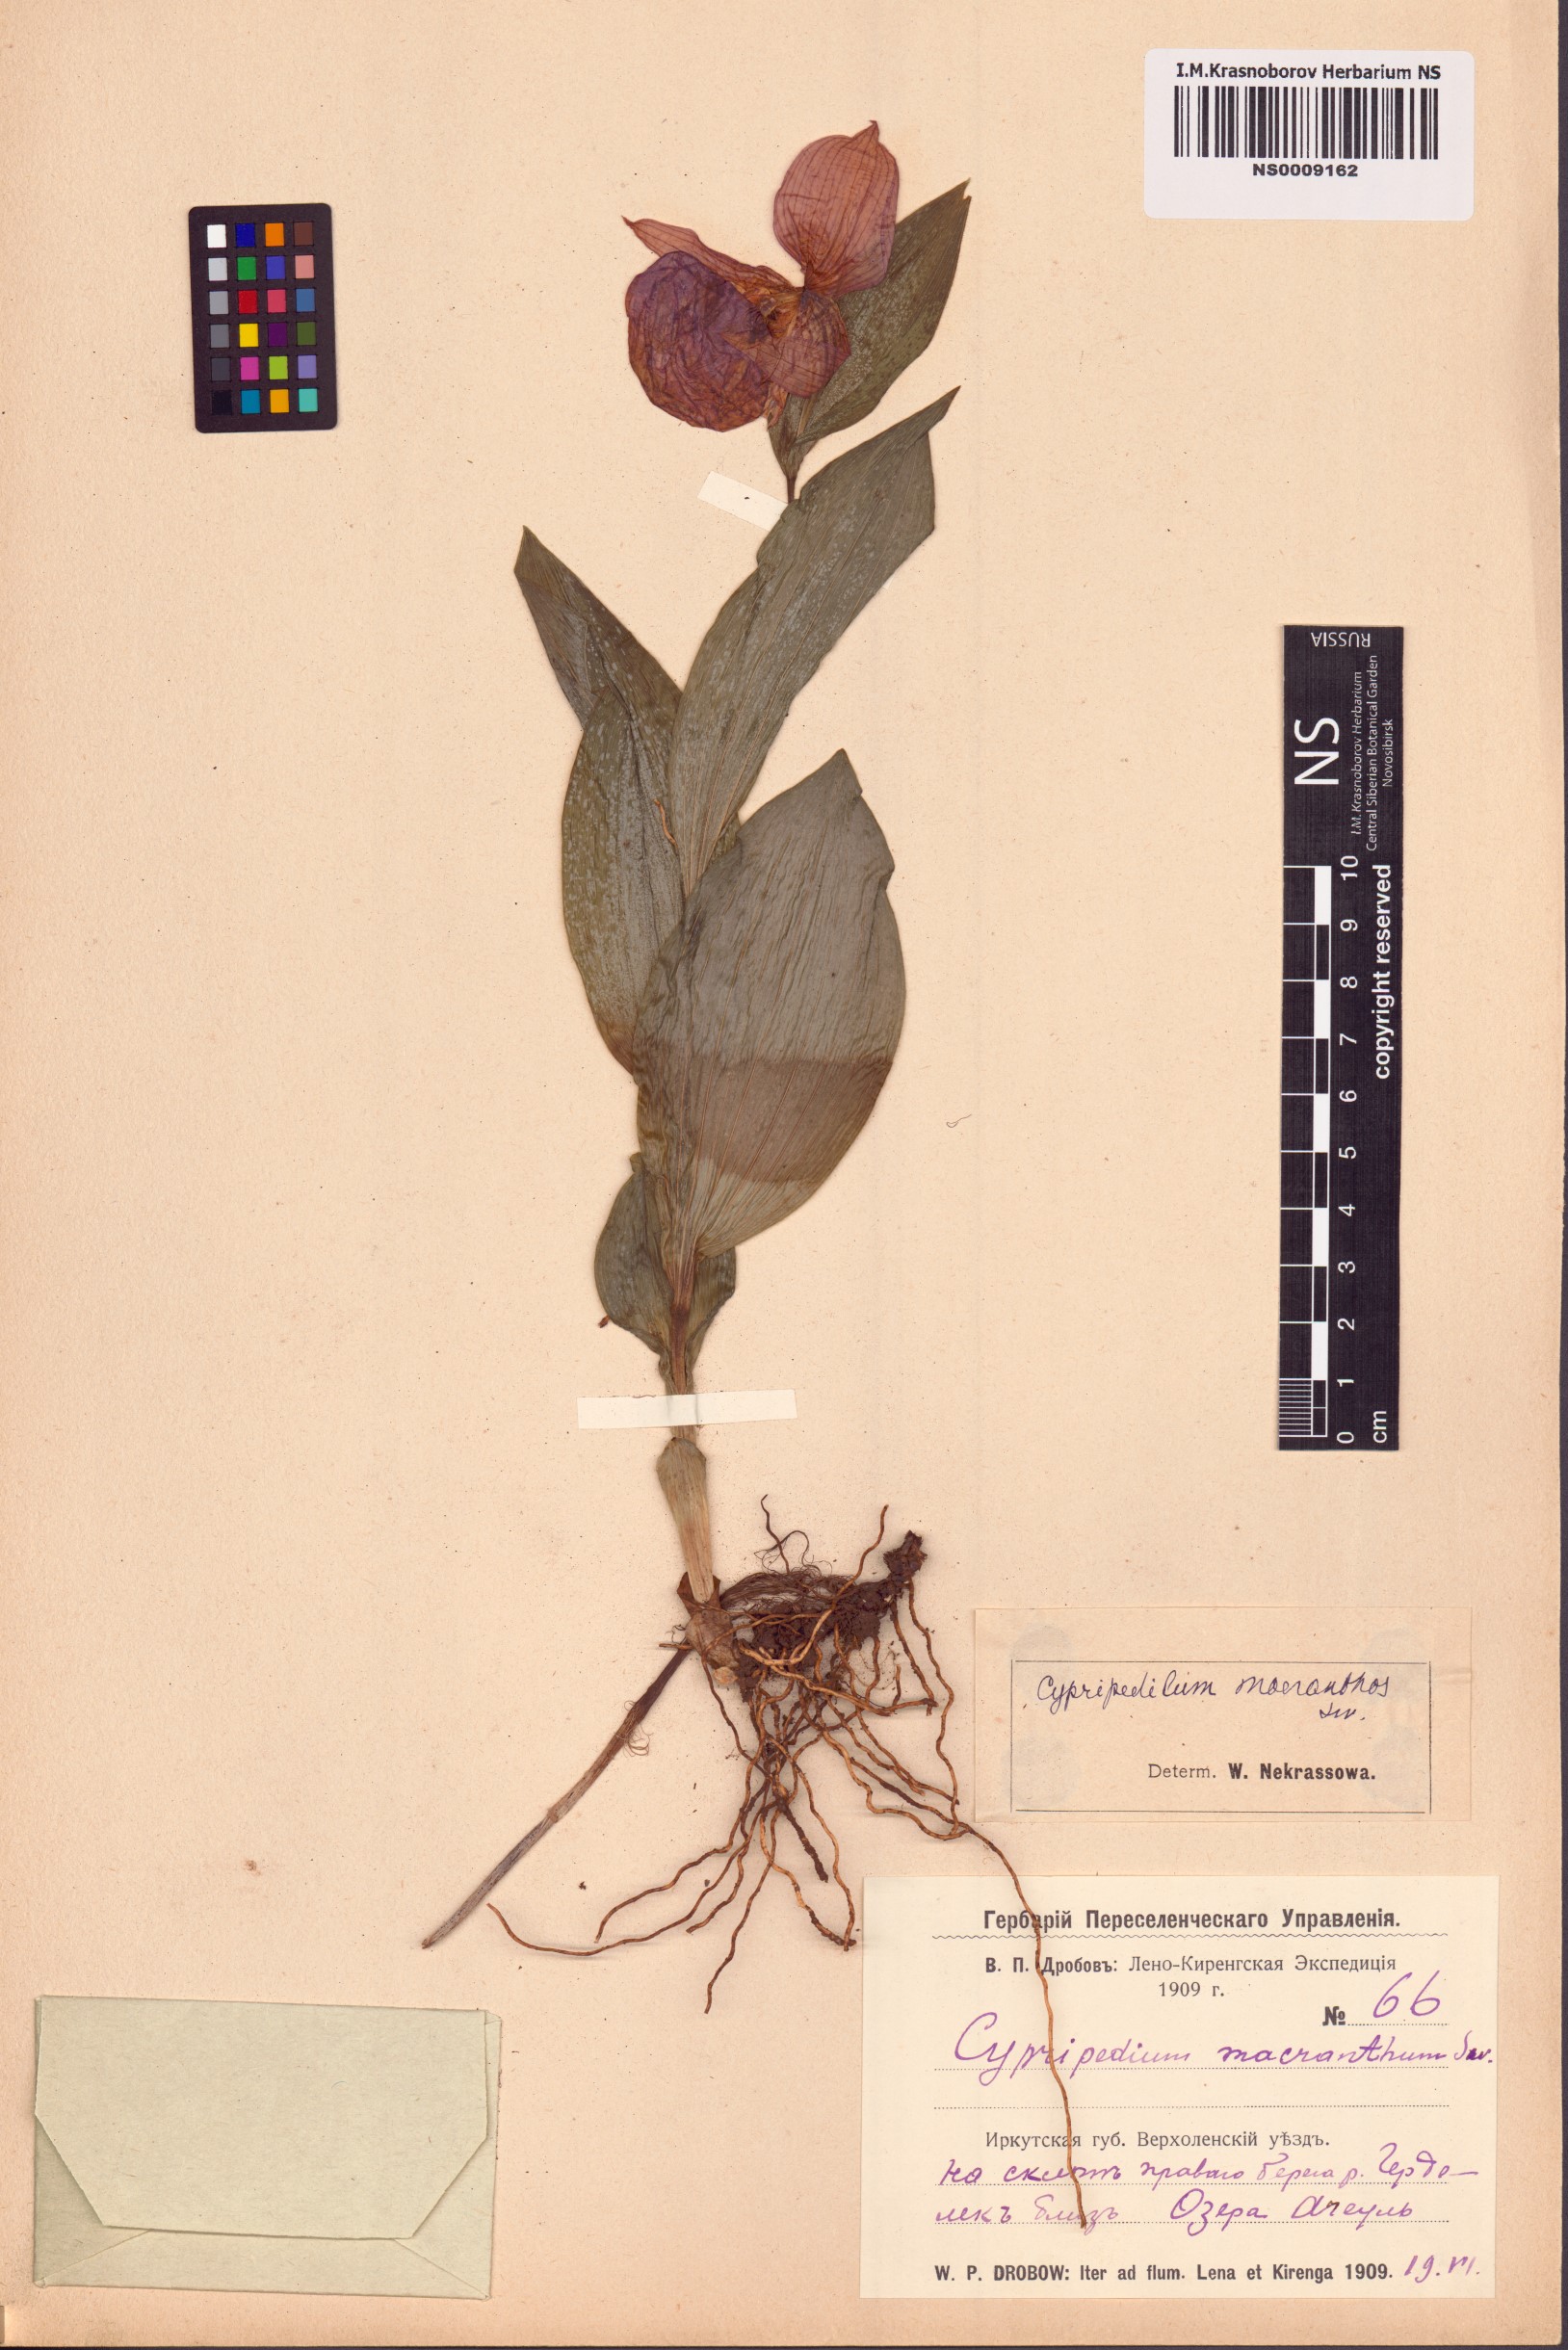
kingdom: Plantae
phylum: Tracheophyta
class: Liliopsida
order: Asparagales
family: Orchidaceae
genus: Cypripedium
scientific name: Cypripedium macranthos
